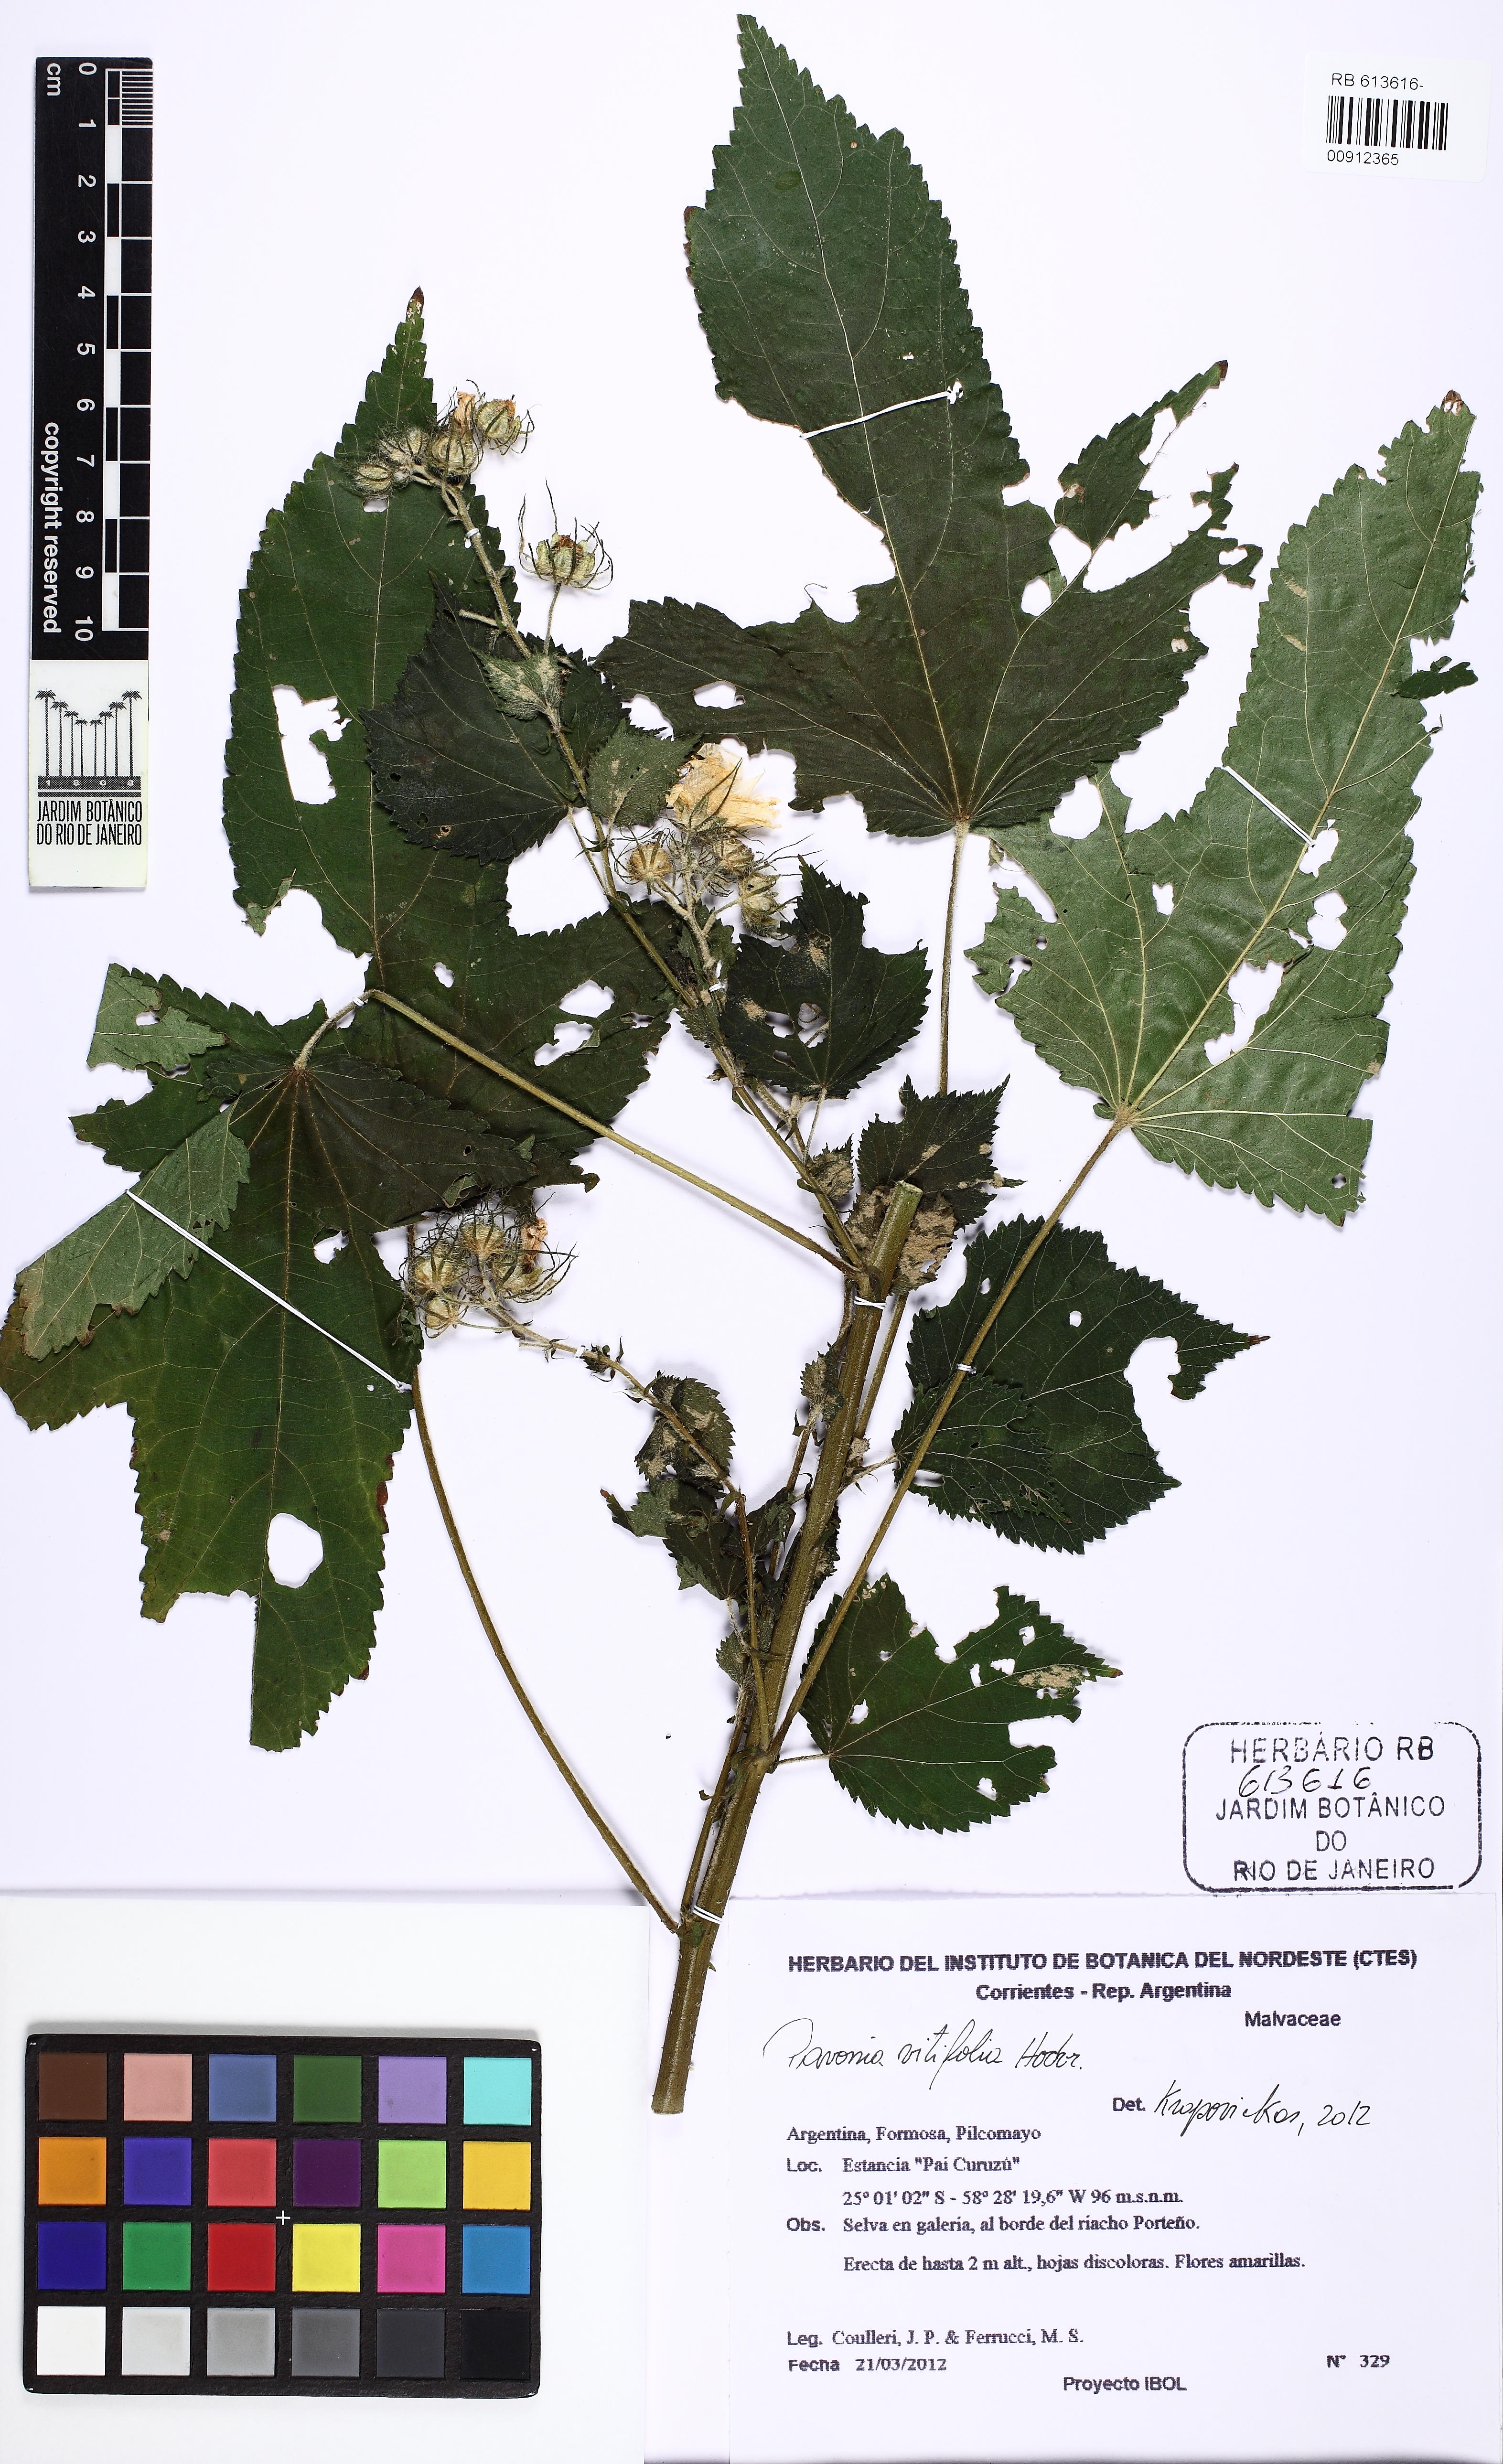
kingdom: Plantae
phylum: Tracheophyta
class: Magnoliopsida
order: Malvales
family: Malvaceae
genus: Pavonia
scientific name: Pavonia vitifolia
